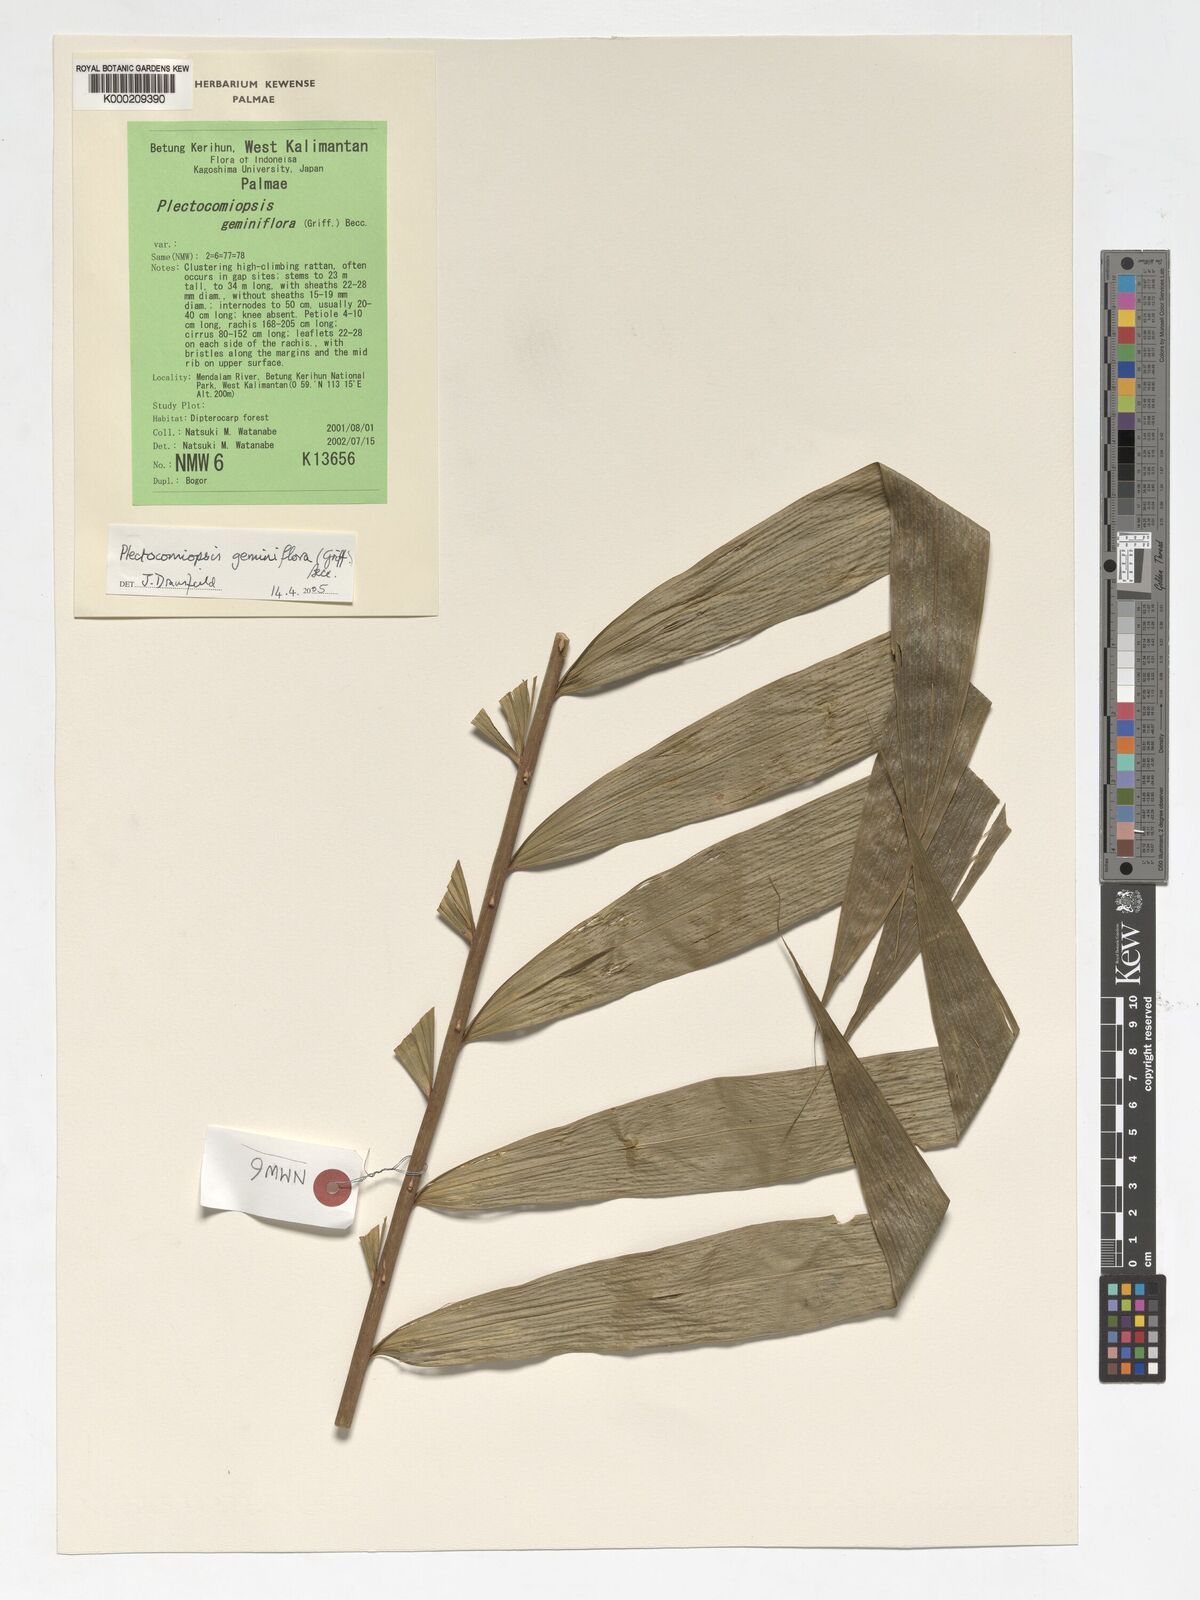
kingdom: Plantae
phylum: Tracheophyta
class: Liliopsida
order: Arecales
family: Arecaceae
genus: Plectocomiopsis
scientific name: Plectocomiopsis geminiflora
